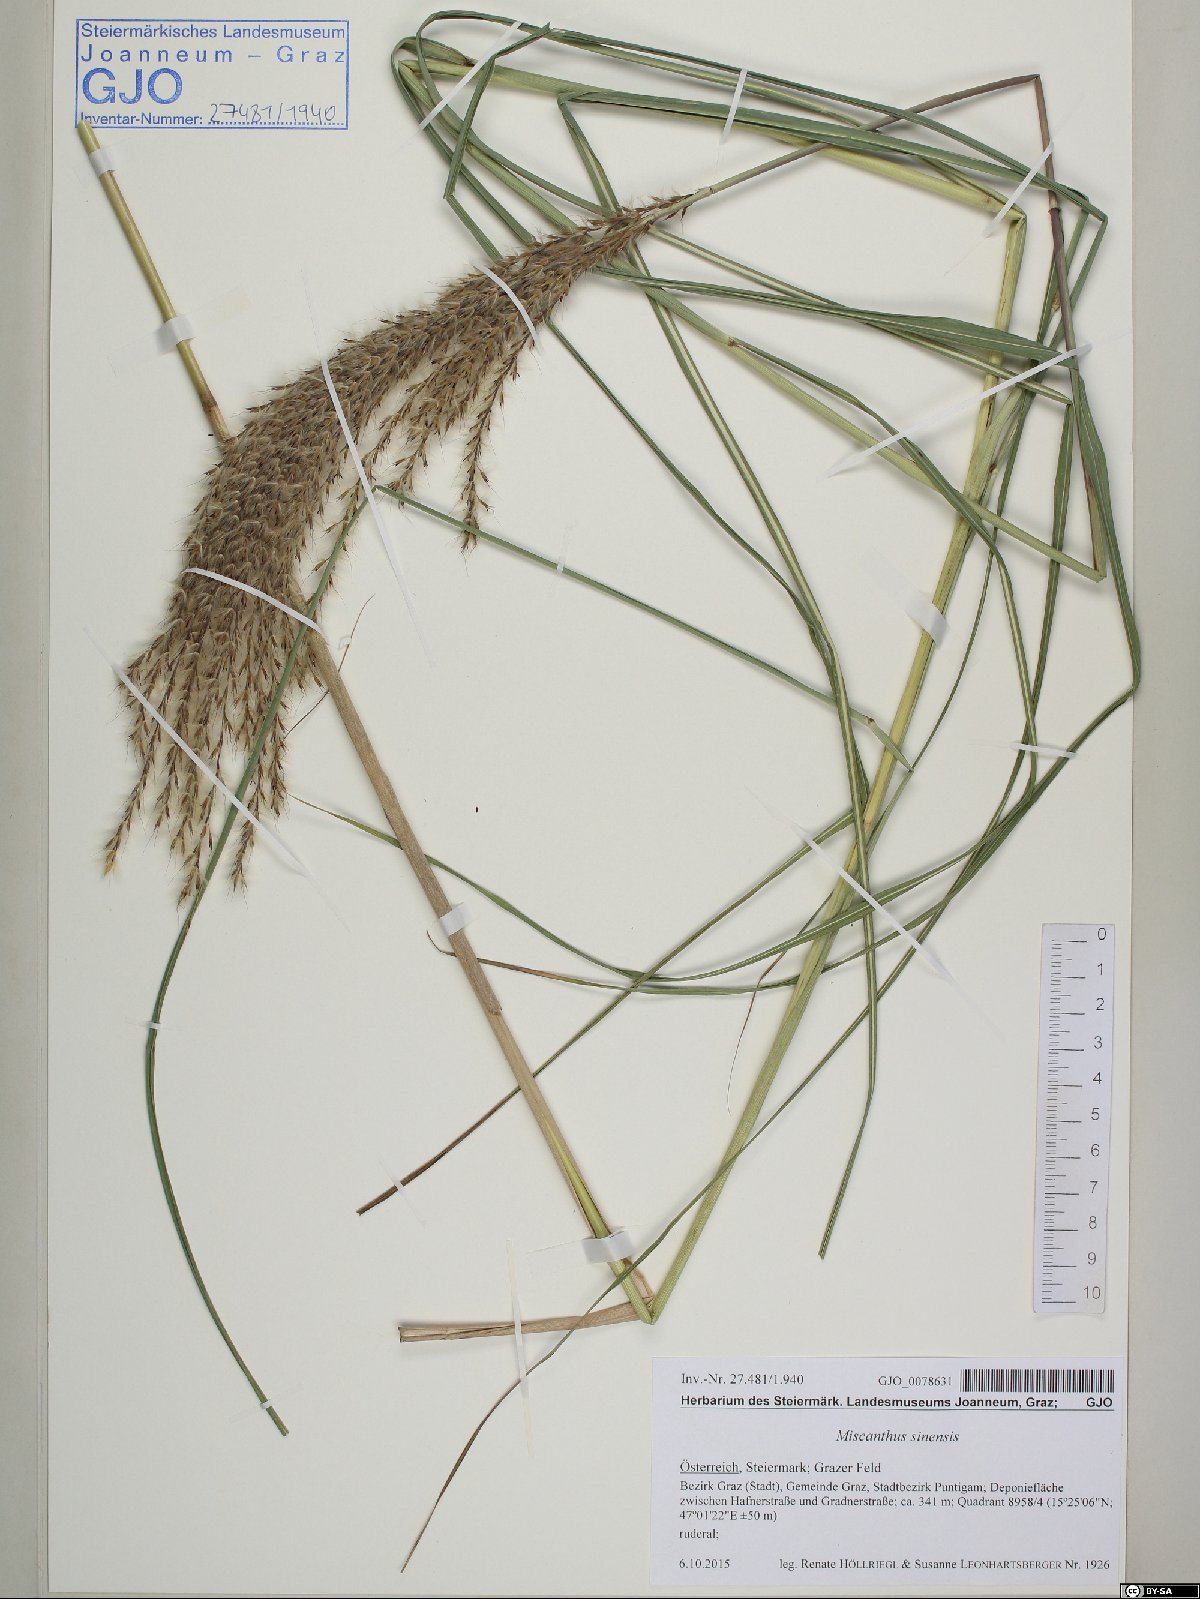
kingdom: Plantae
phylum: Tracheophyta
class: Liliopsida
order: Poales
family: Poaceae
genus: Miscanthus
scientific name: Miscanthus sinensis
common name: Chinese silvergrass
